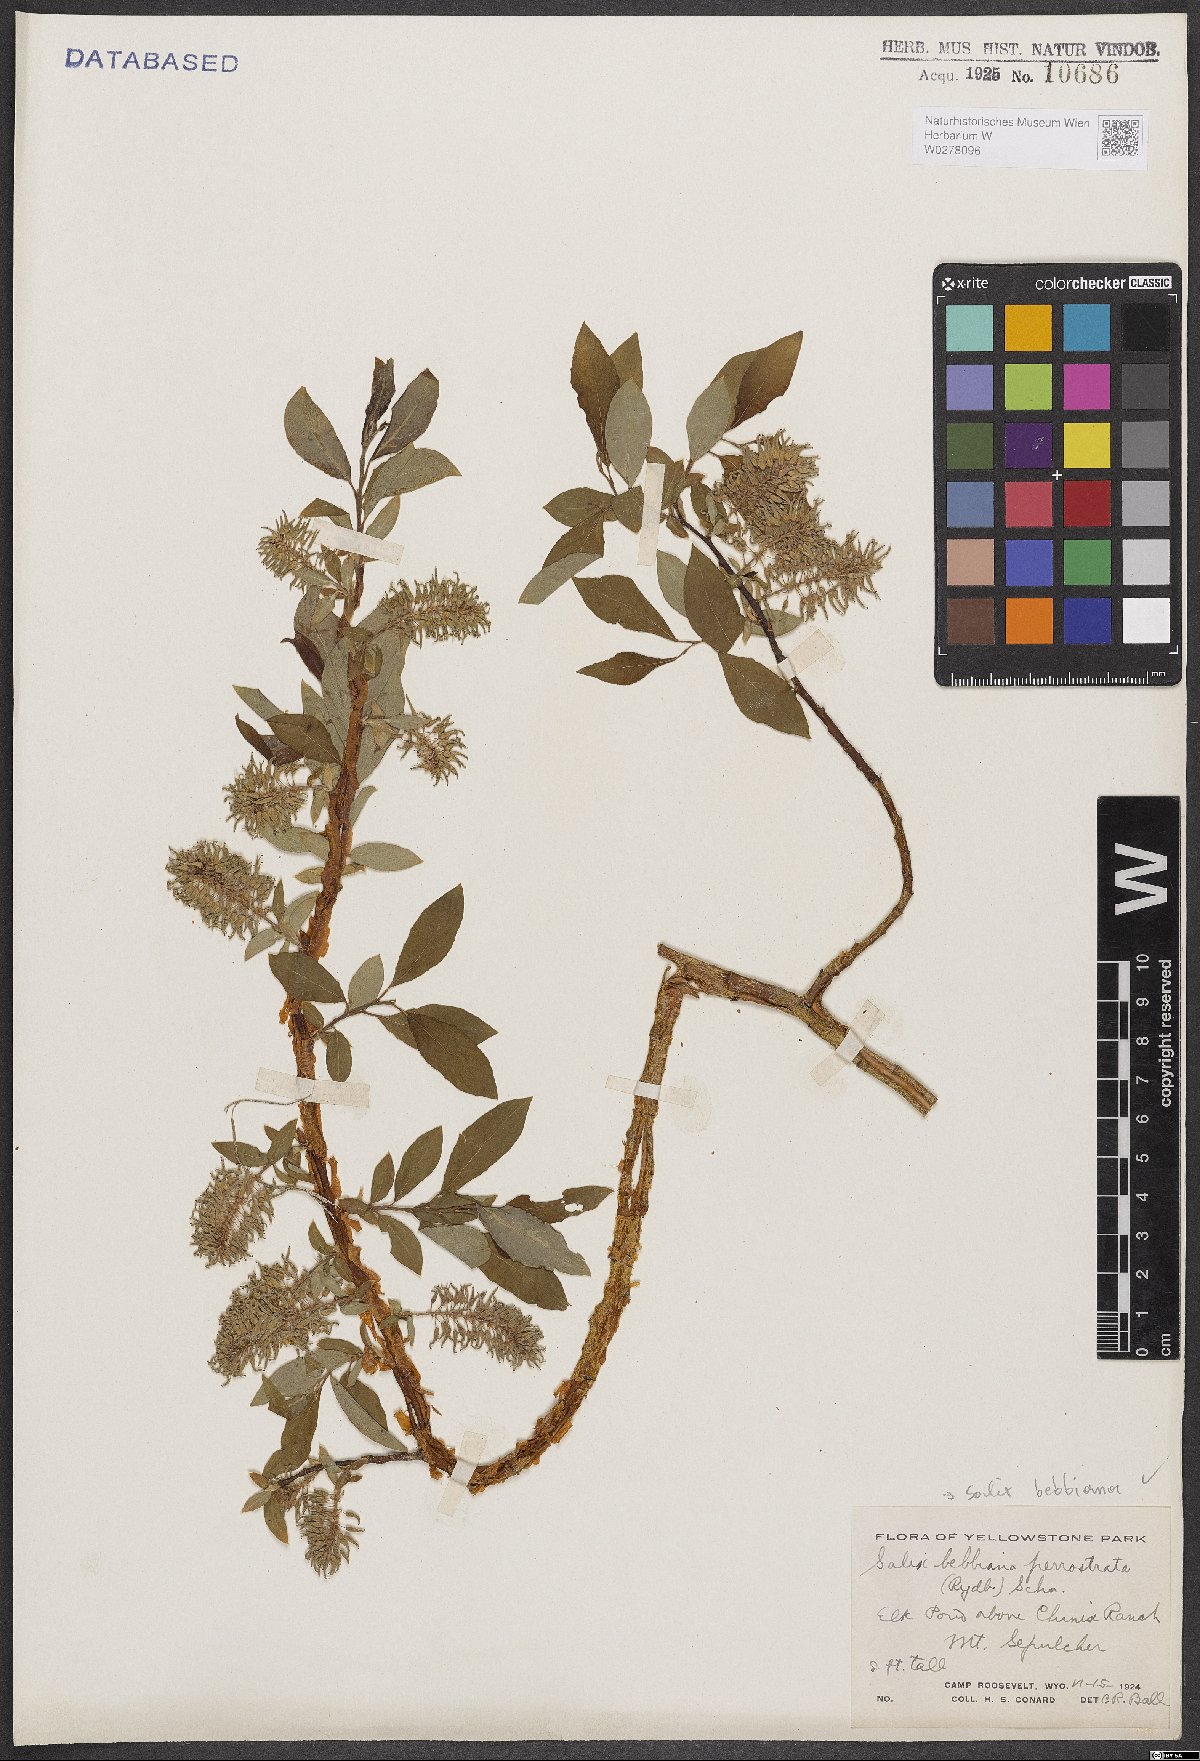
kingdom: Plantae
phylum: Tracheophyta
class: Magnoliopsida
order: Malpighiales
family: Salicaceae
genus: Salix
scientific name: Salix bebbiana
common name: Bebb's willow
